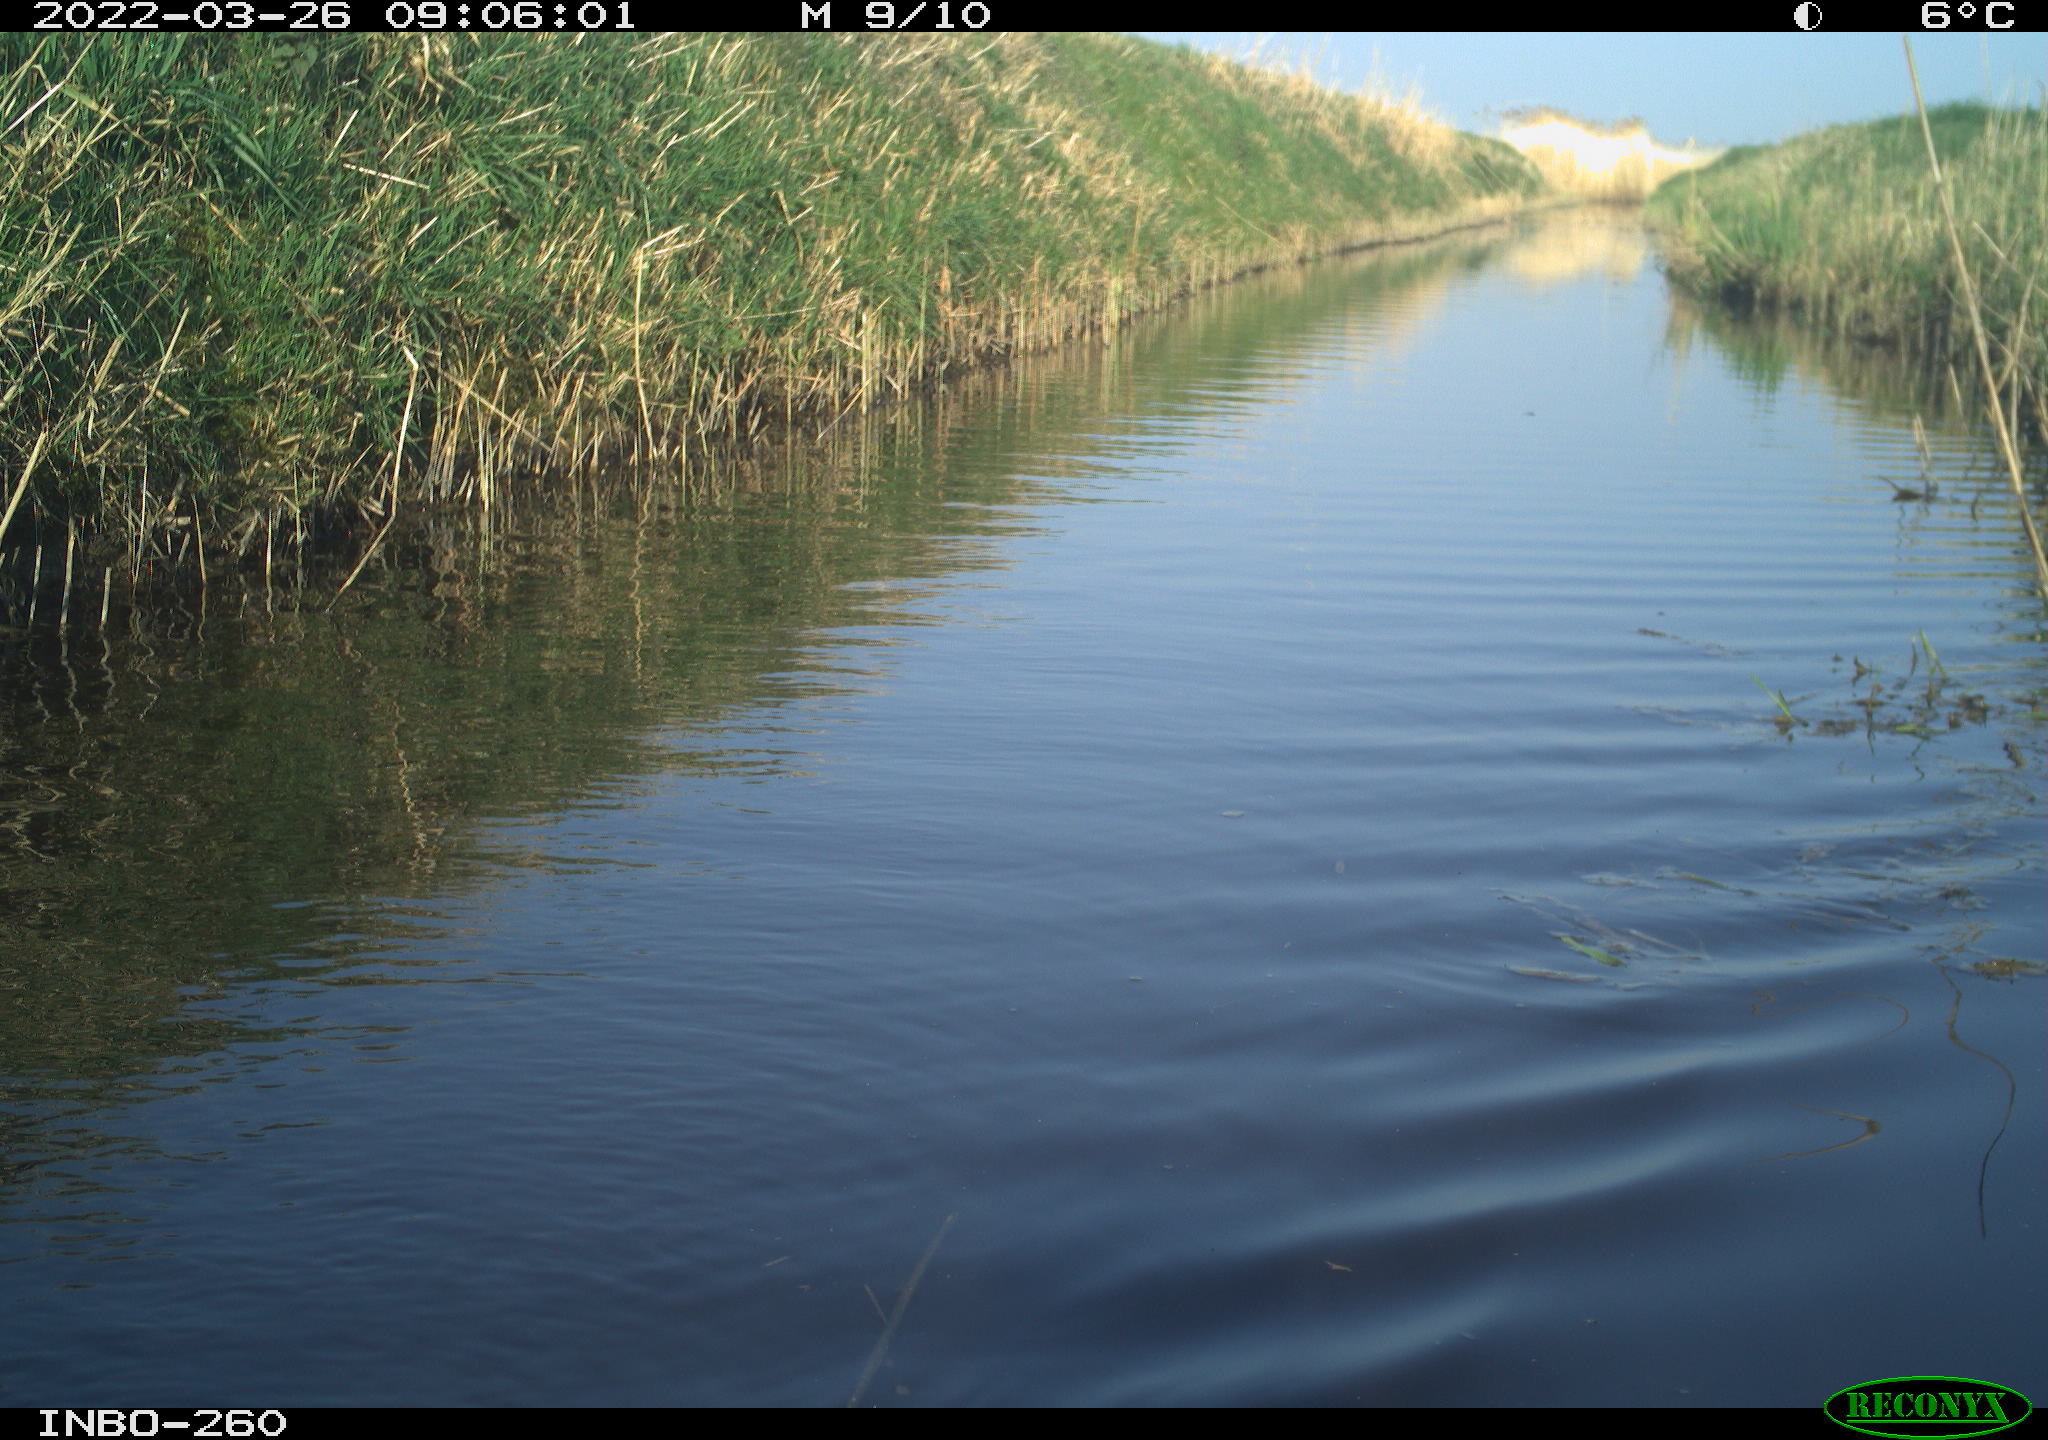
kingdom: Animalia
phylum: Chordata
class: Aves
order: Gruiformes
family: Rallidae
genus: Fulica
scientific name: Fulica atra
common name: Eurasian coot
